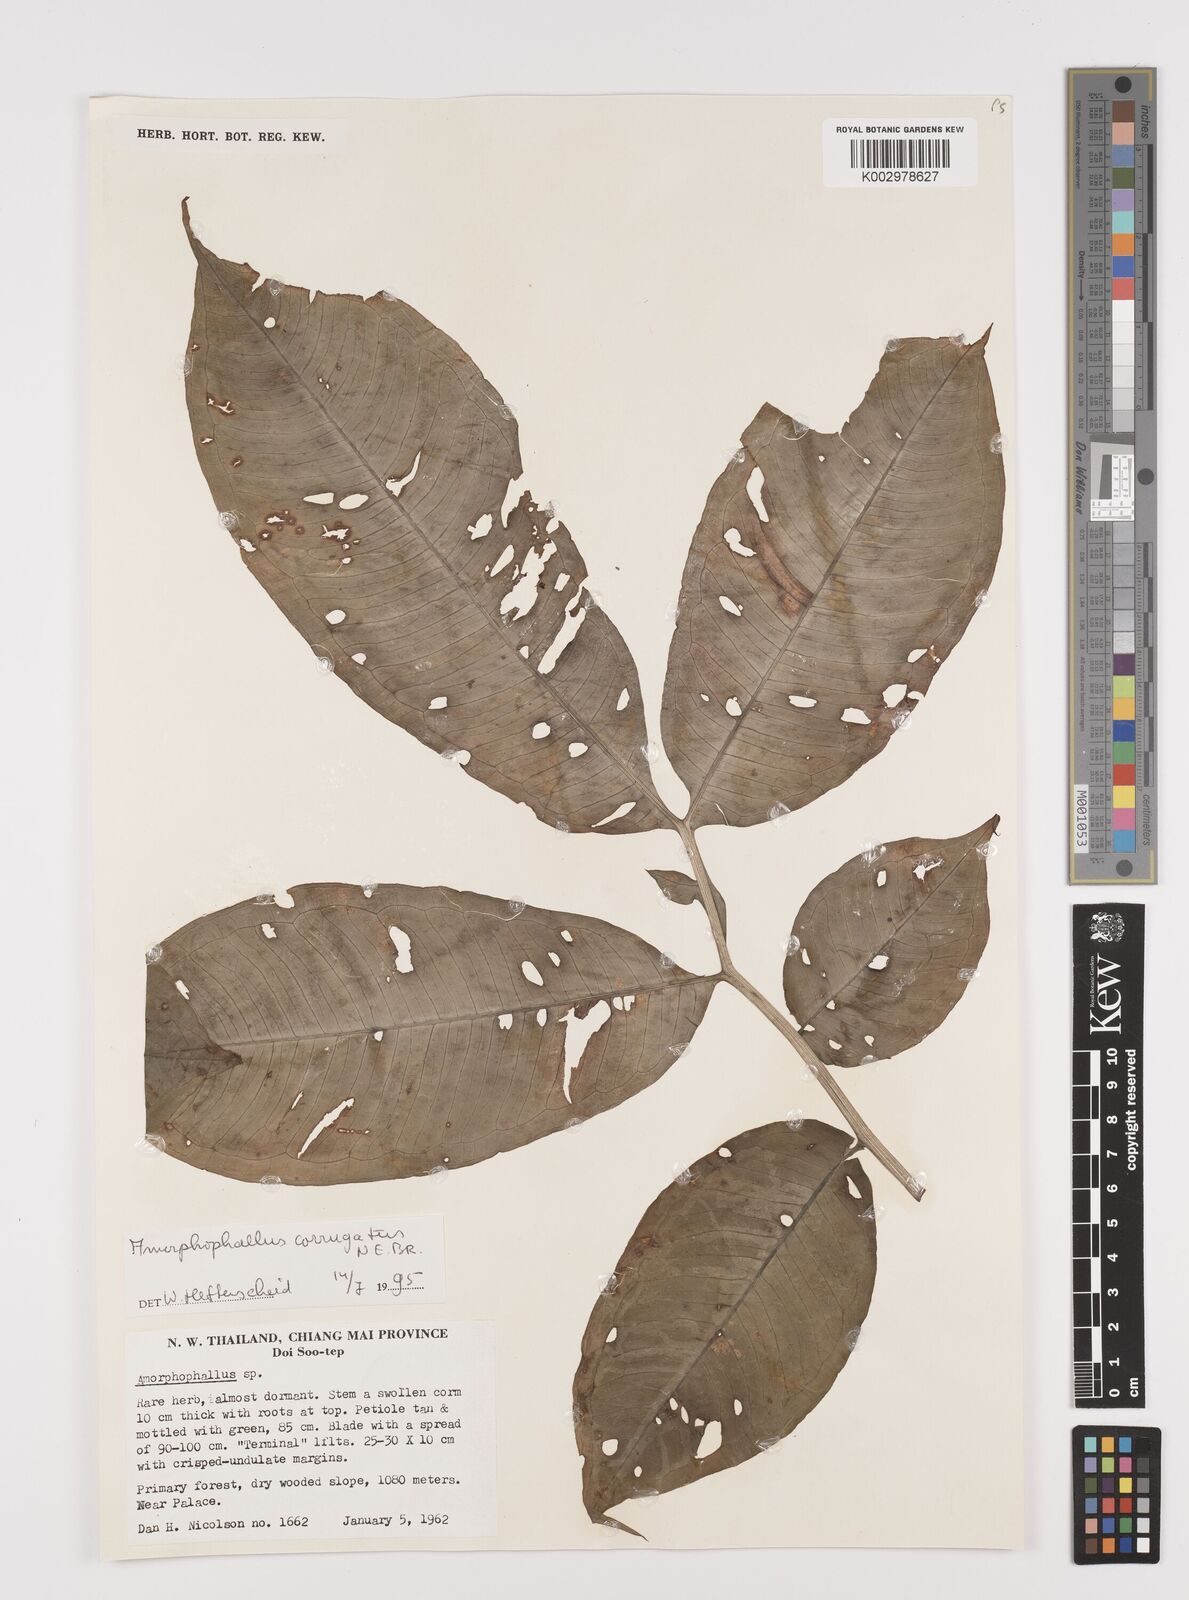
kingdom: Plantae
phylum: Tracheophyta
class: Liliopsida
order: Alismatales
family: Araceae
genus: Amorphophallus
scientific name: Amorphophallus corrugatus
